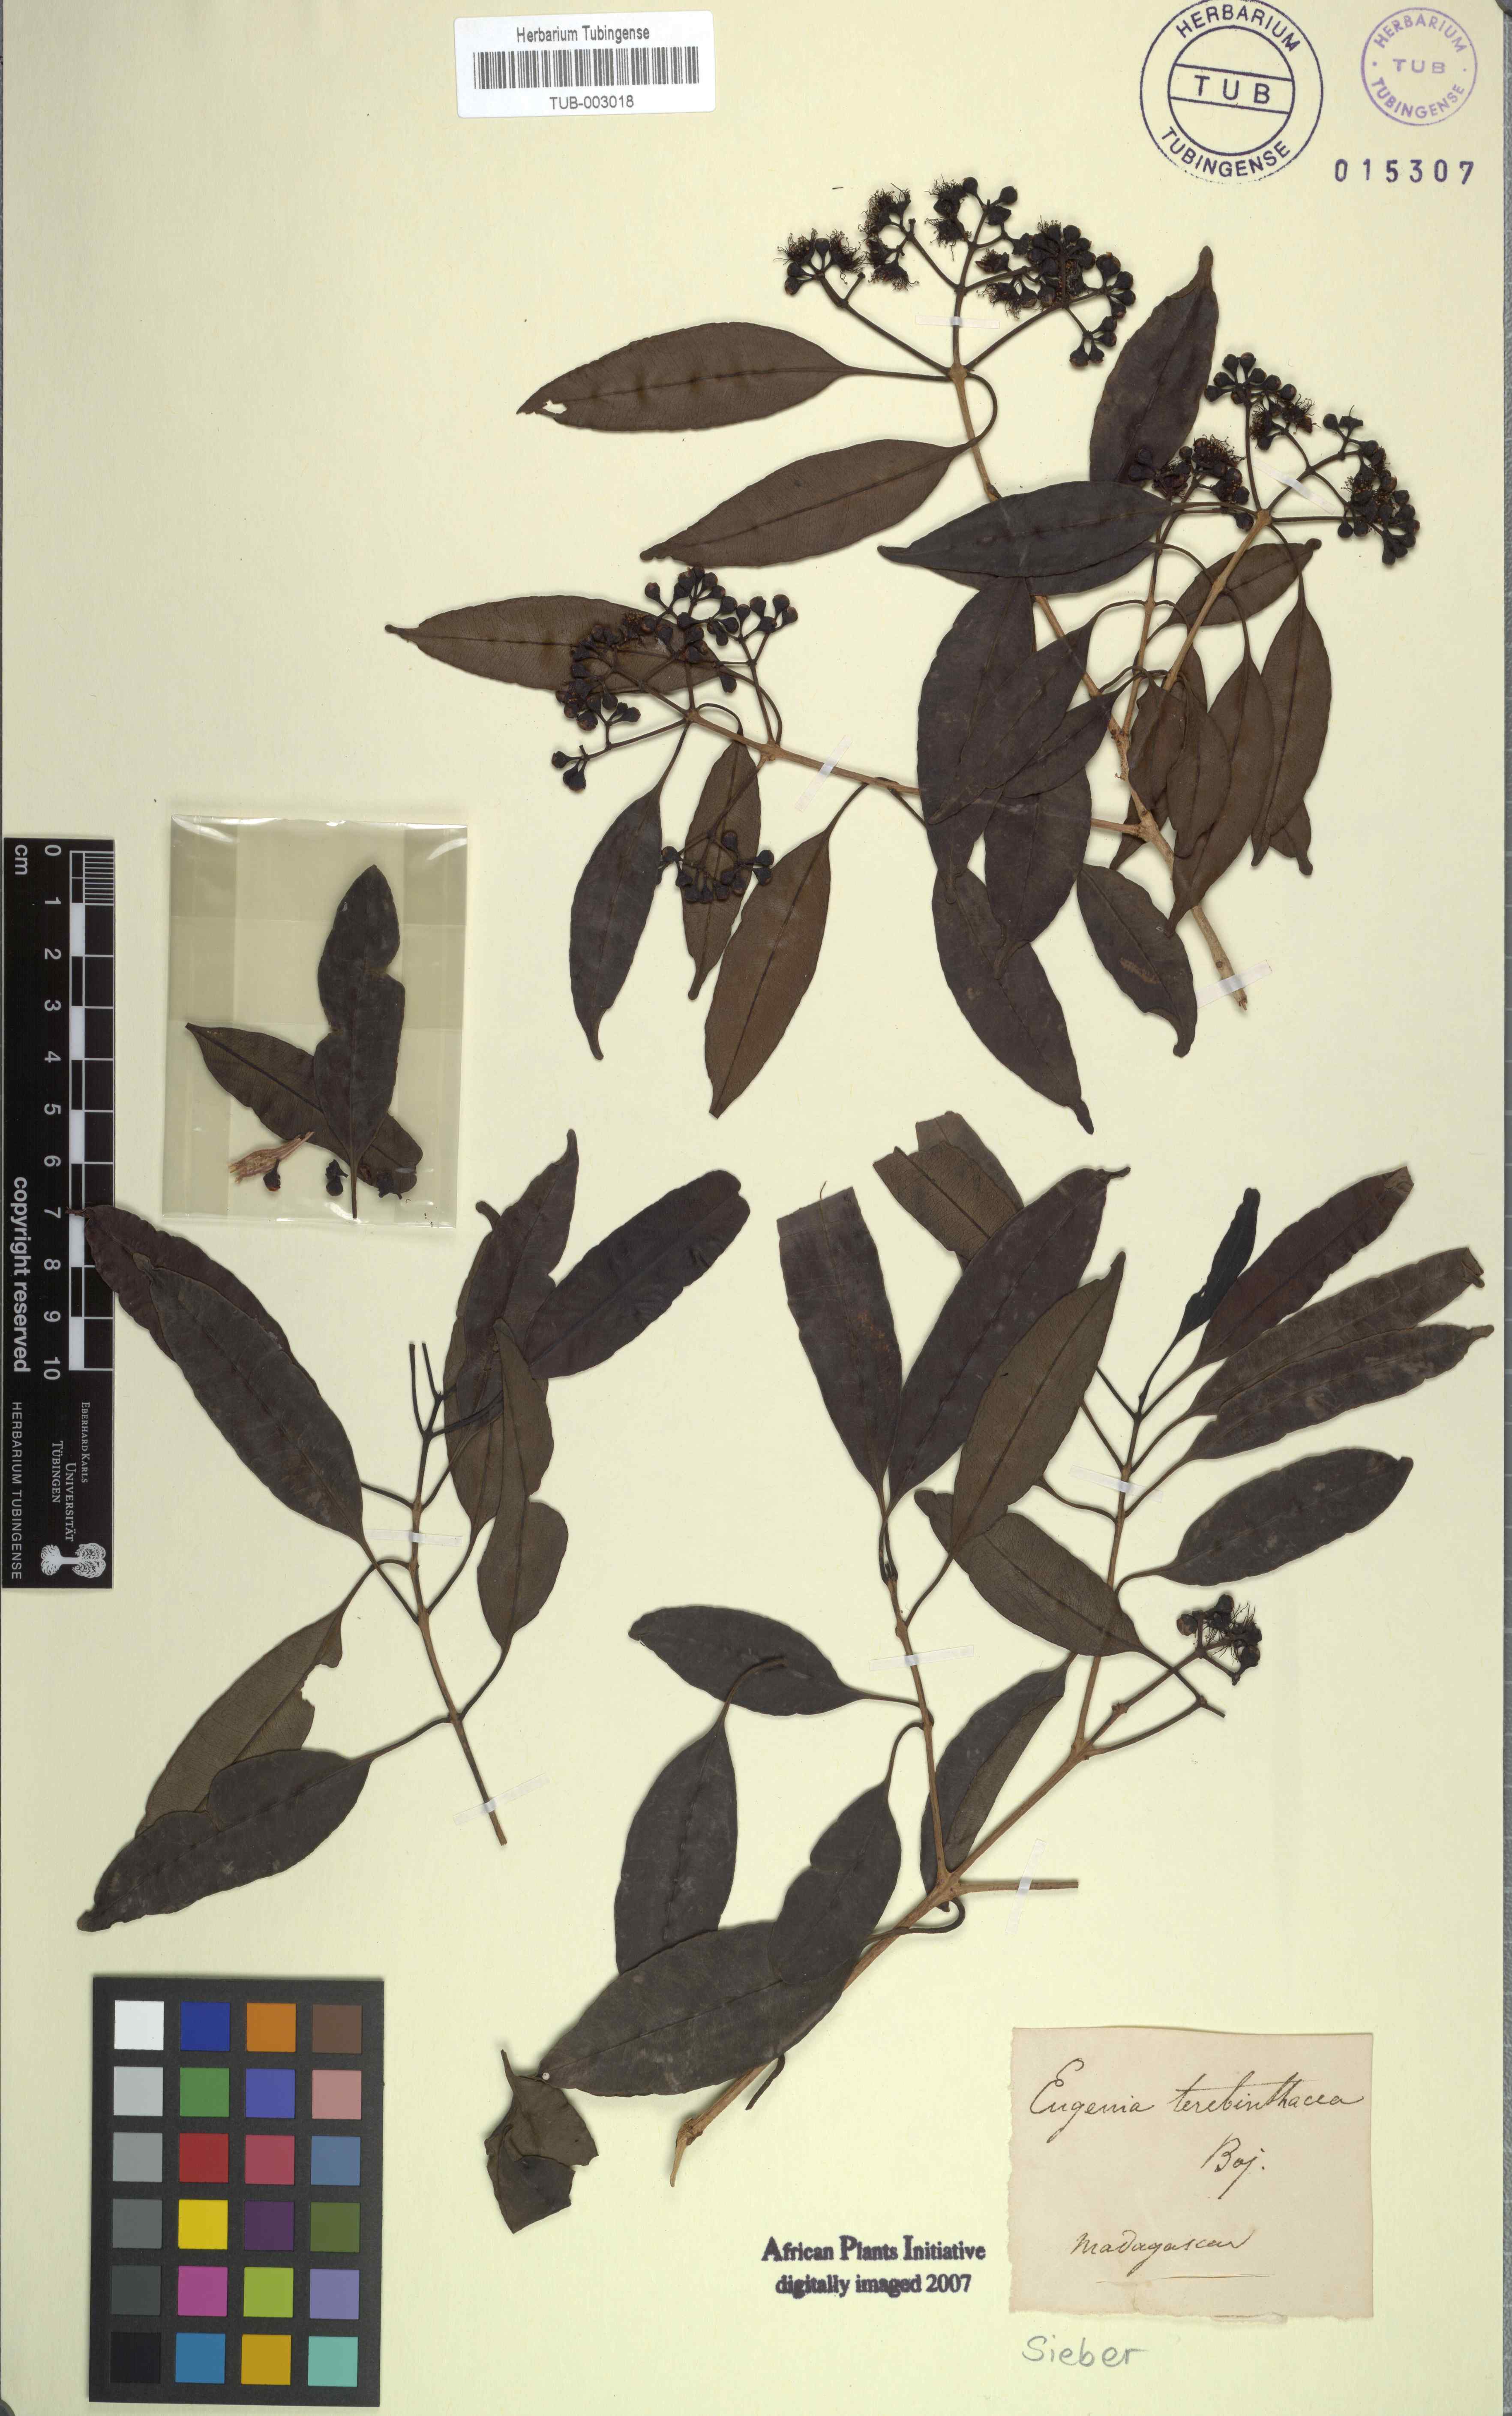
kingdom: Plantae
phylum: Tracheophyta
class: Magnoliopsida
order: Myrtales
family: Myrtaceae
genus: Eugenia
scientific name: Eugenia
